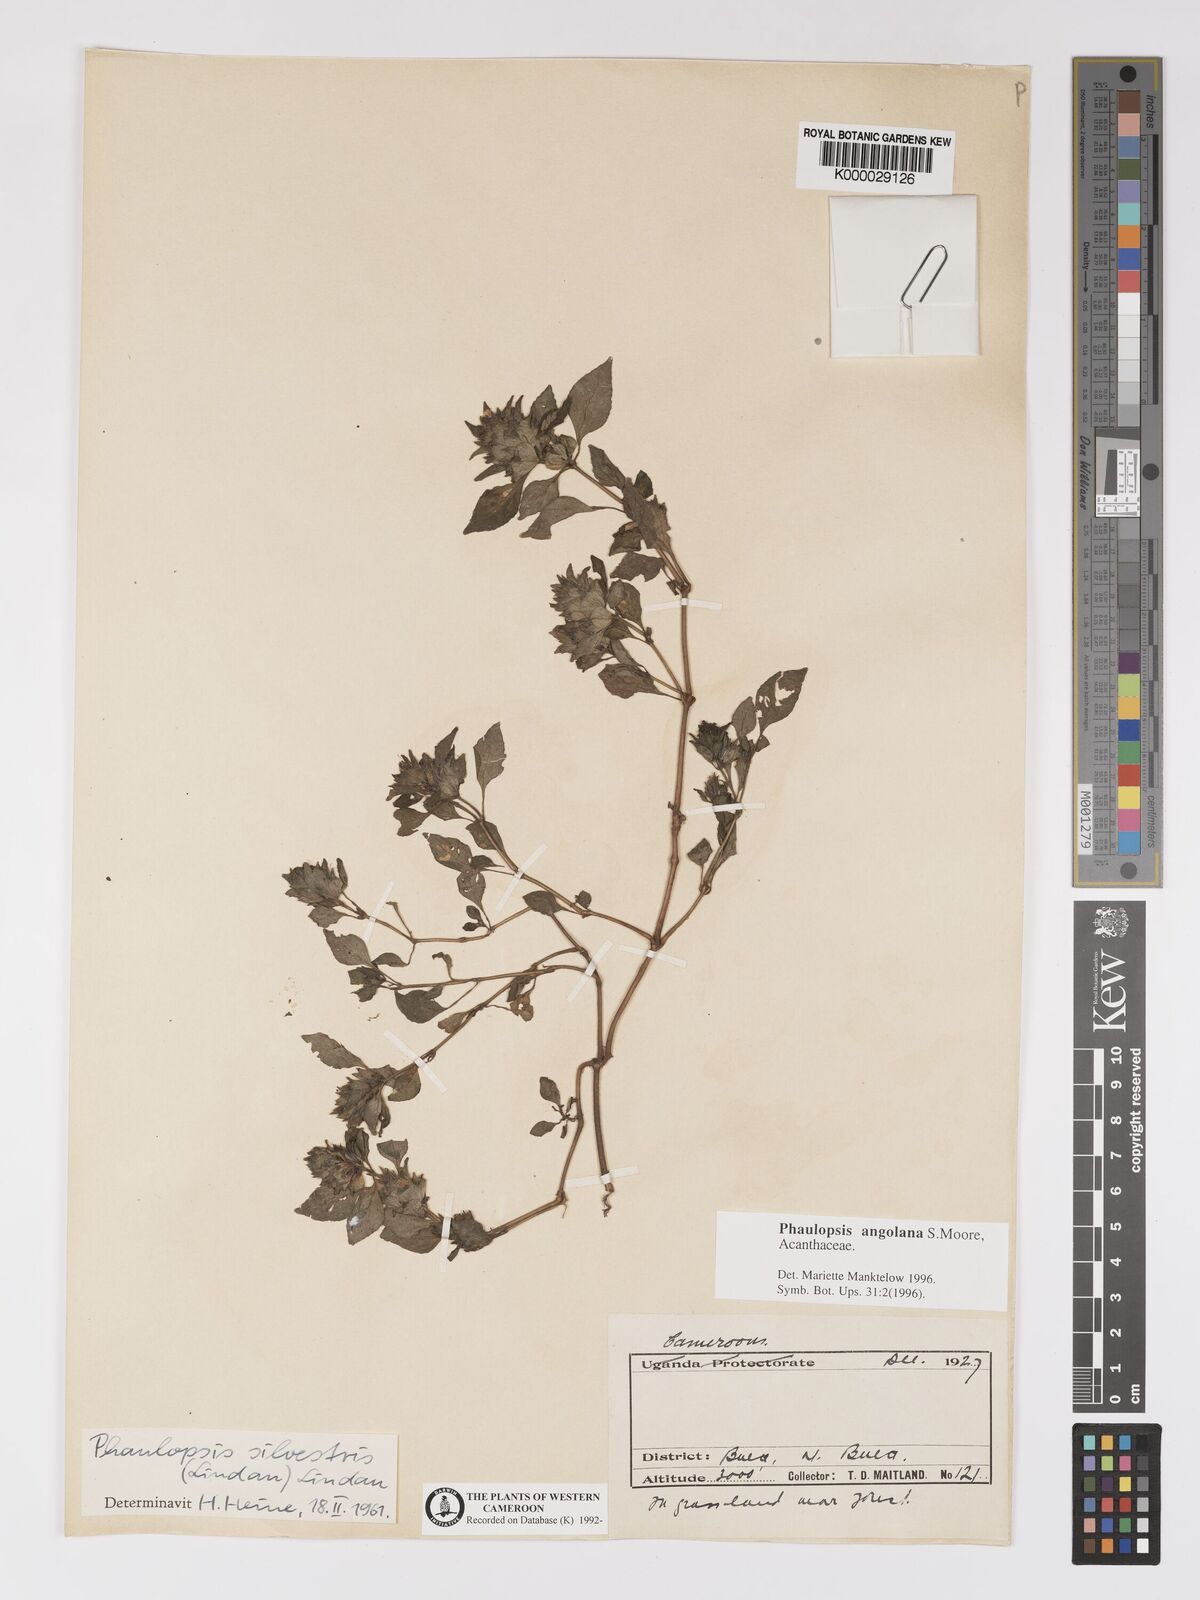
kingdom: Plantae
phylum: Tracheophyta
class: Magnoliopsida
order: Lamiales
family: Acanthaceae
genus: Phaulopsis
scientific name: Phaulopsis angolana
